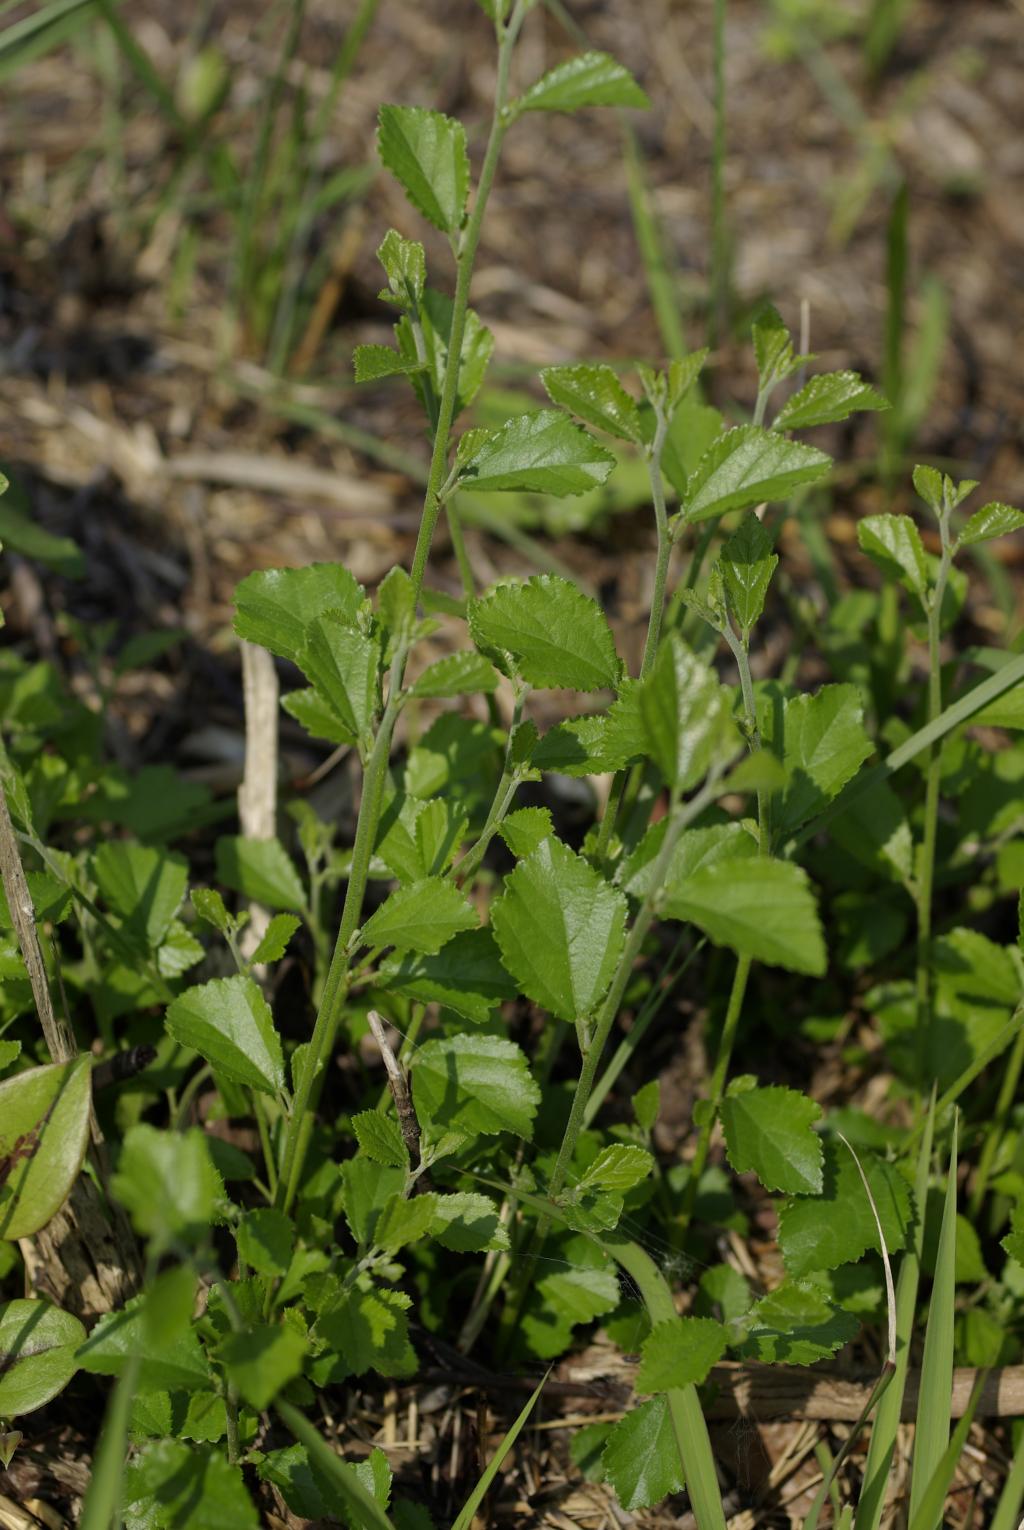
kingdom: Plantae
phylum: Tracheophyta
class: Magnoliopsida
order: Malvales
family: Malvaceae
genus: Grewia
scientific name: Grewia rhombifolia
